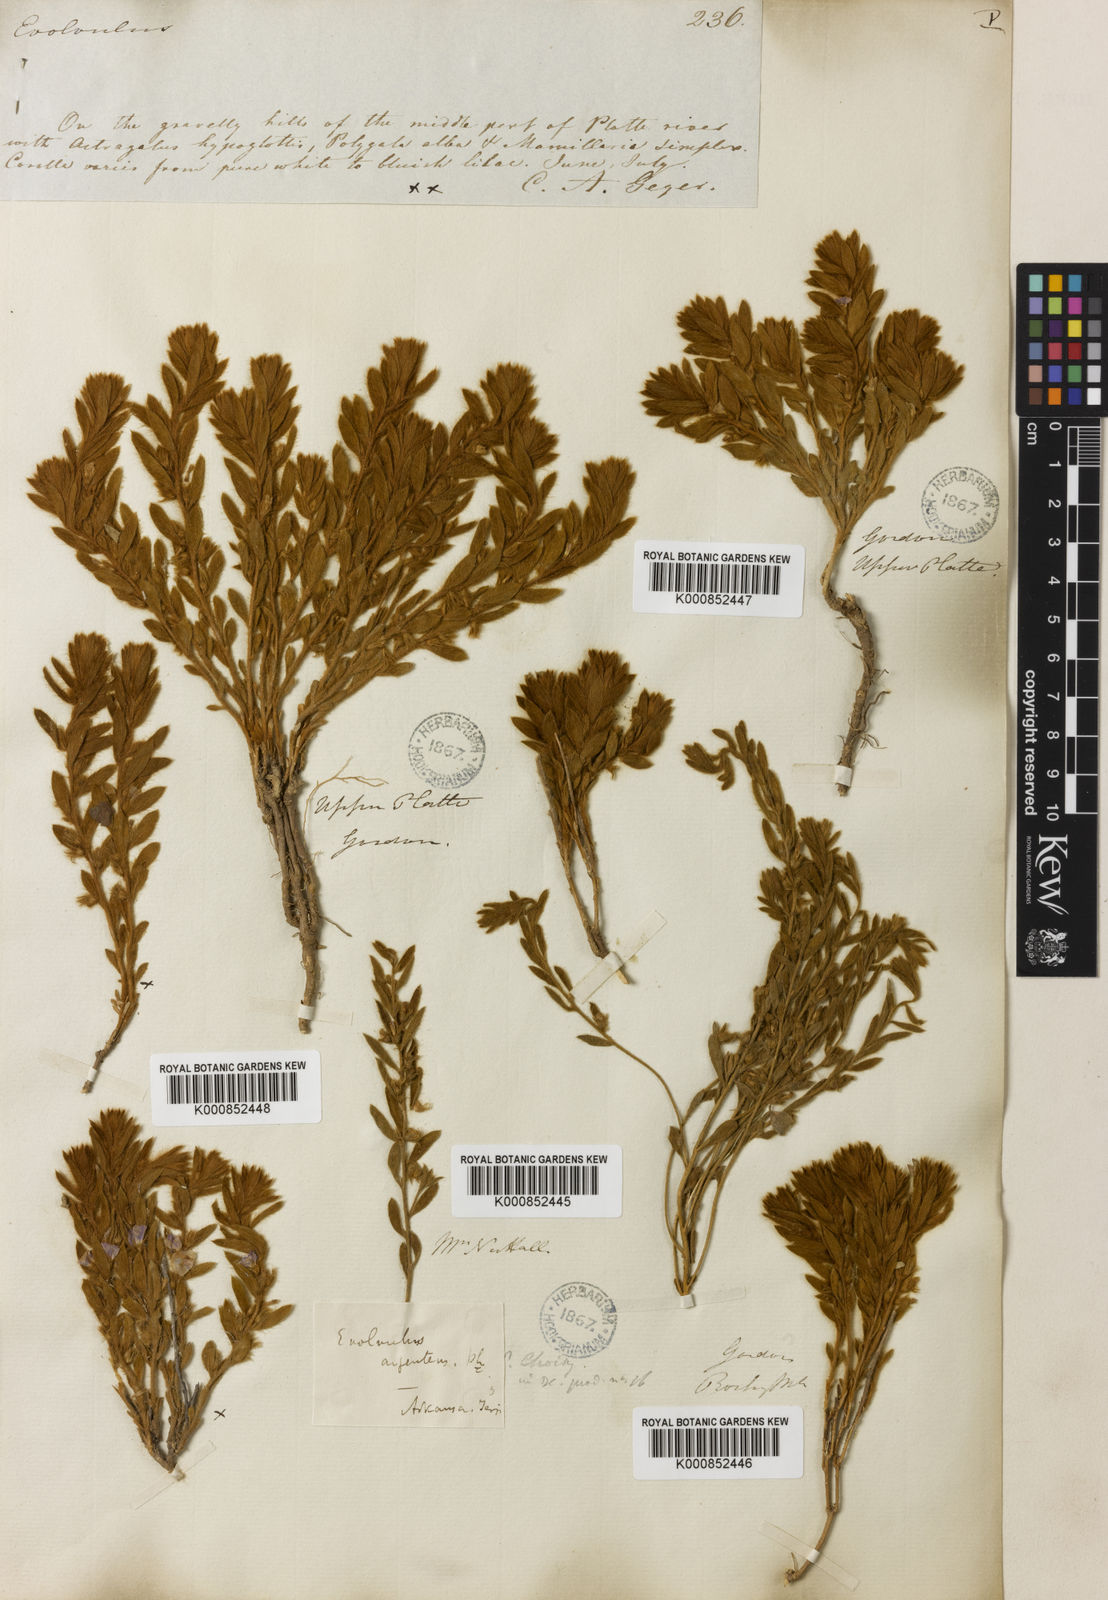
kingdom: Plantae
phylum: Tracheophyta
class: Magnoliopsida
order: Solanales
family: Convolvulaceae
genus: Evolvulus
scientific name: Evolvulus
